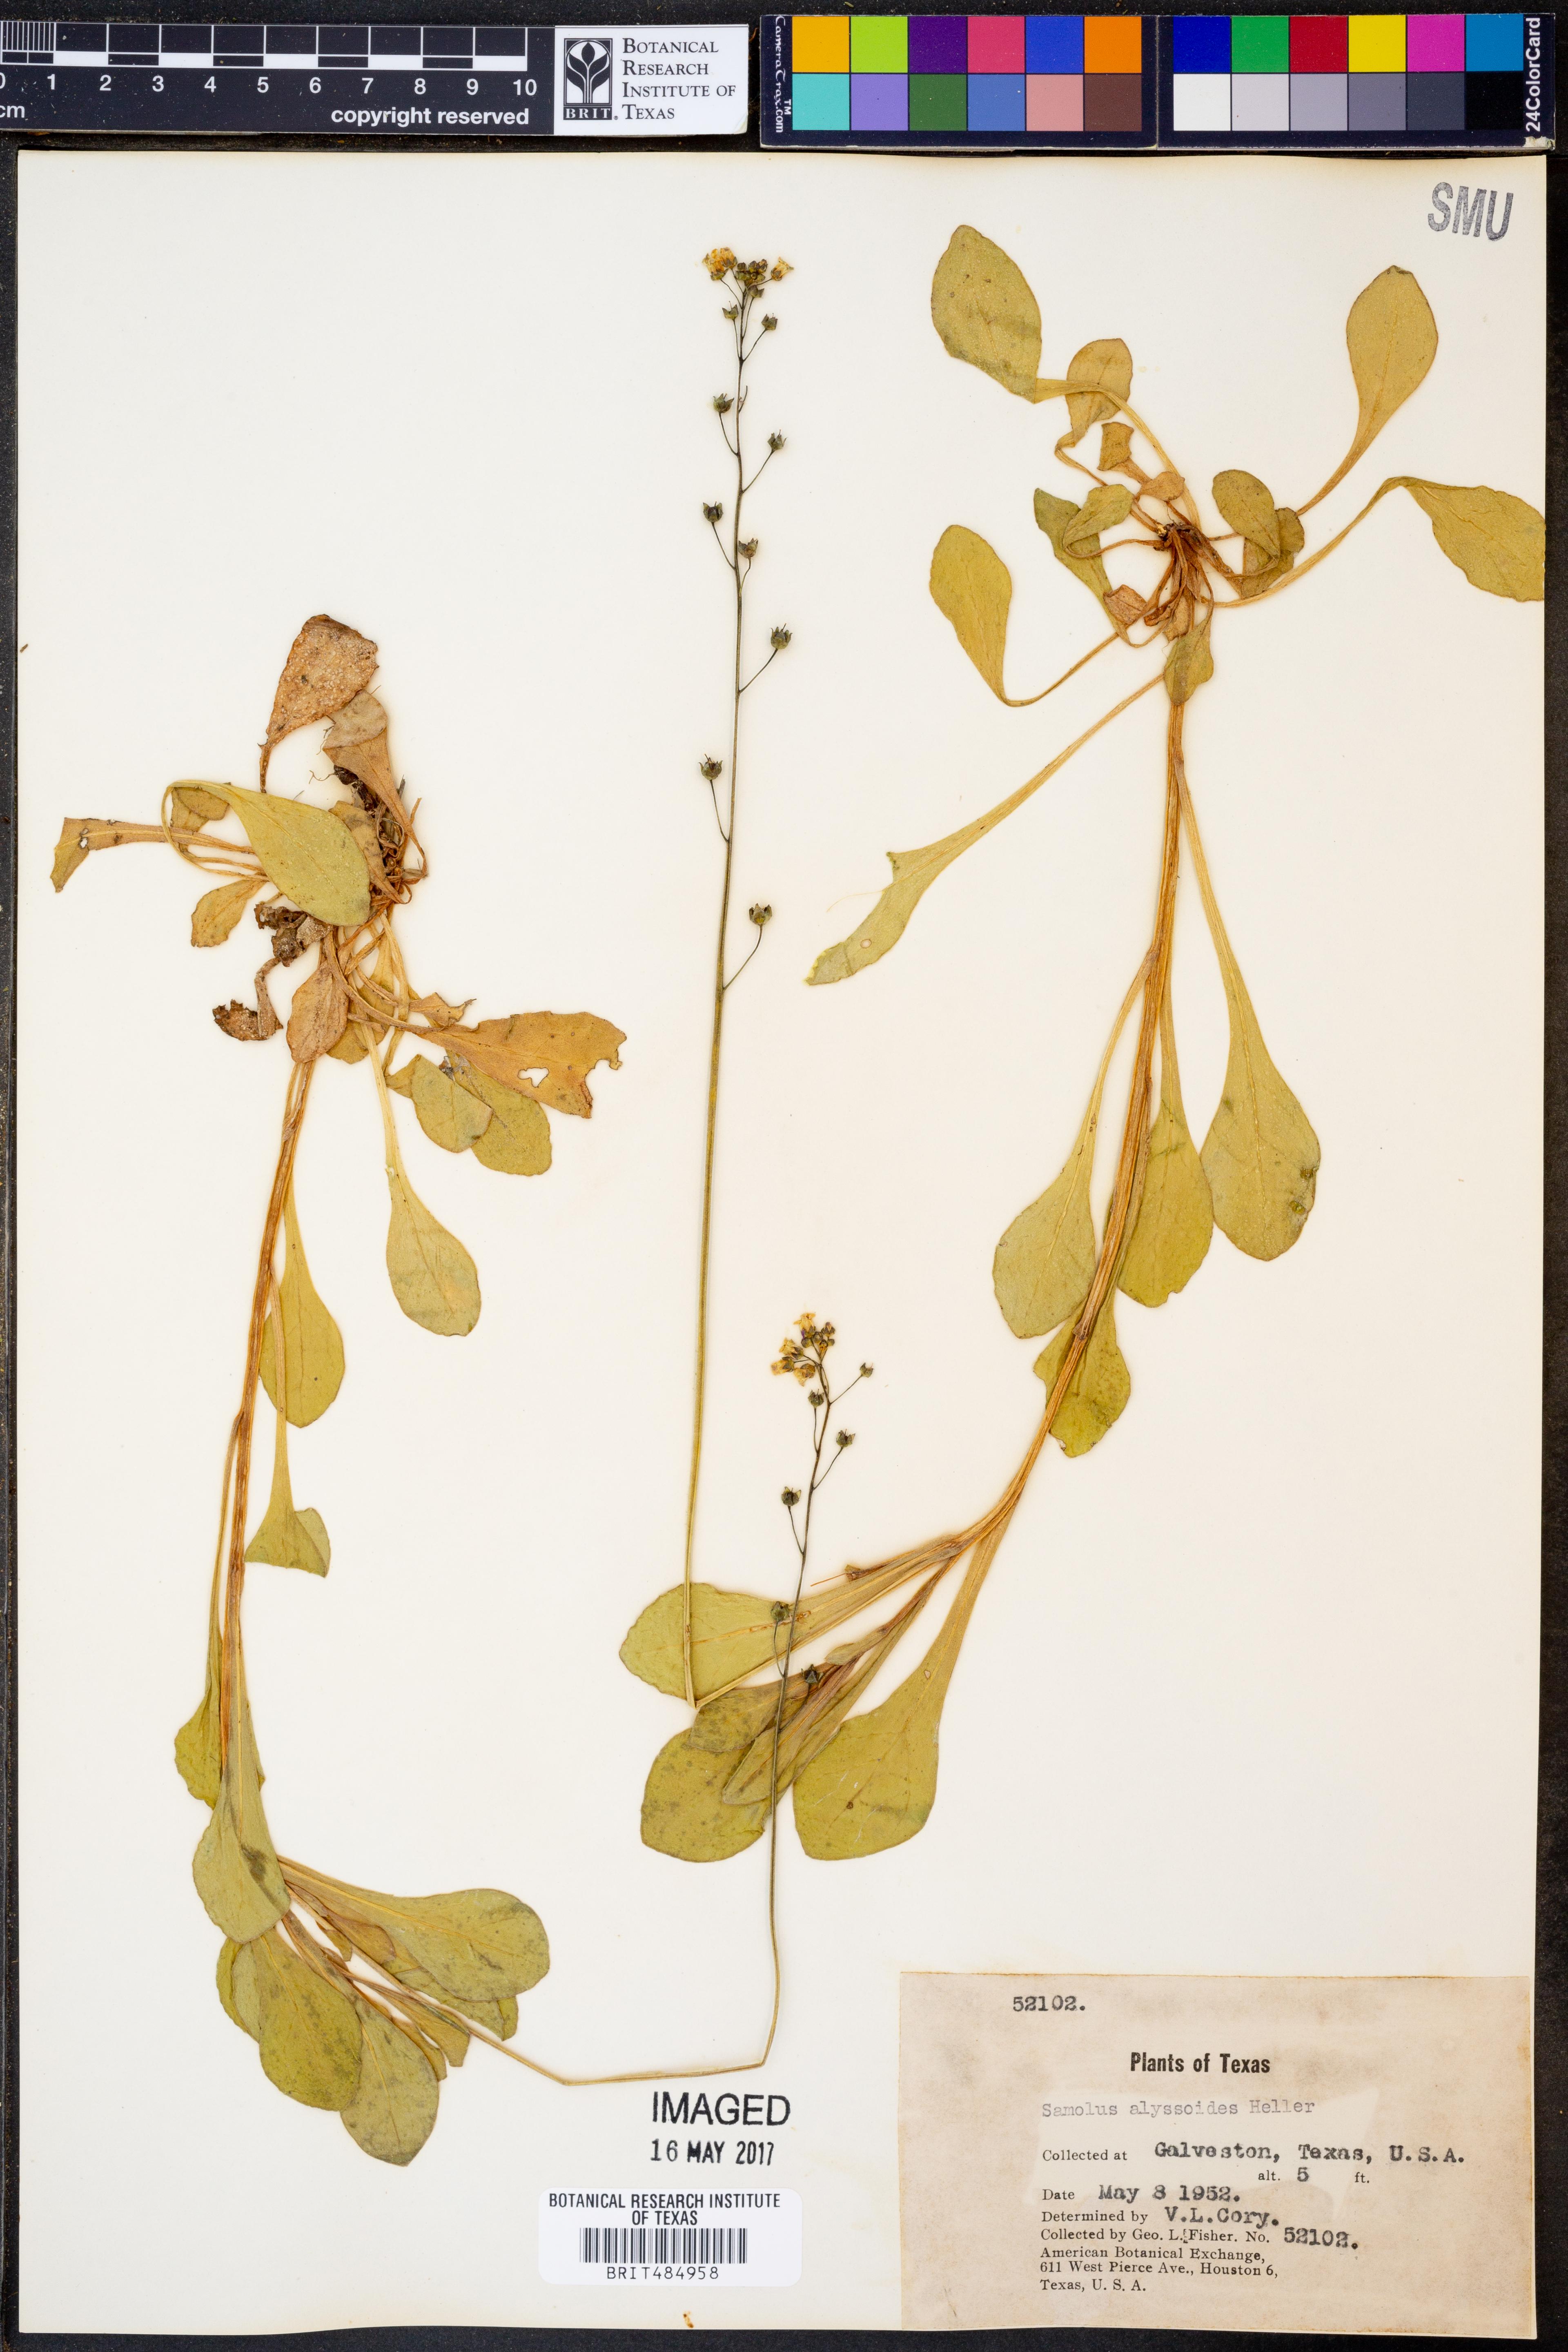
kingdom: Plantae
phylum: Tracheophyta
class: Magnoliopsida
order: Ericales
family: Primulaceae
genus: Samolus
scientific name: Samolus ebracteatus
